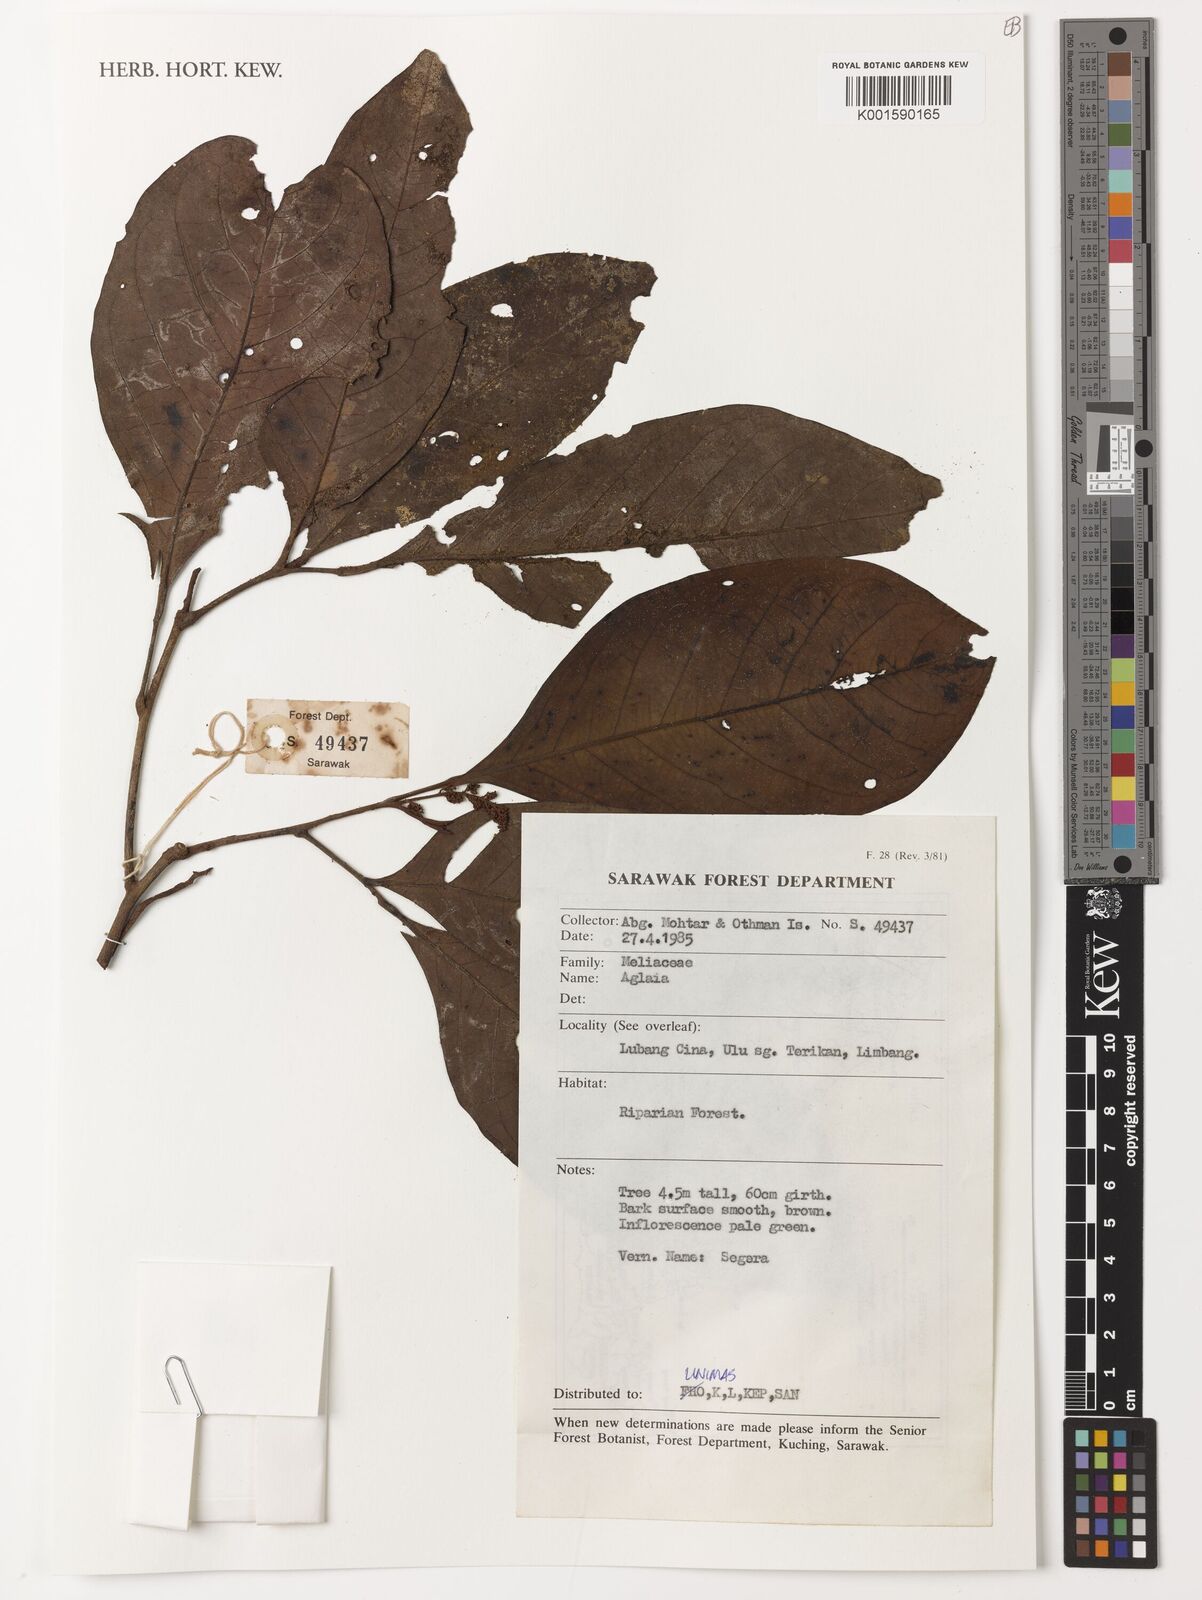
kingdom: Plantae
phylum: Tracheophyta
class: Magnoliopsida
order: Sapindales
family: Meliaceae
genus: Aglaia
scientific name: Aglaia
